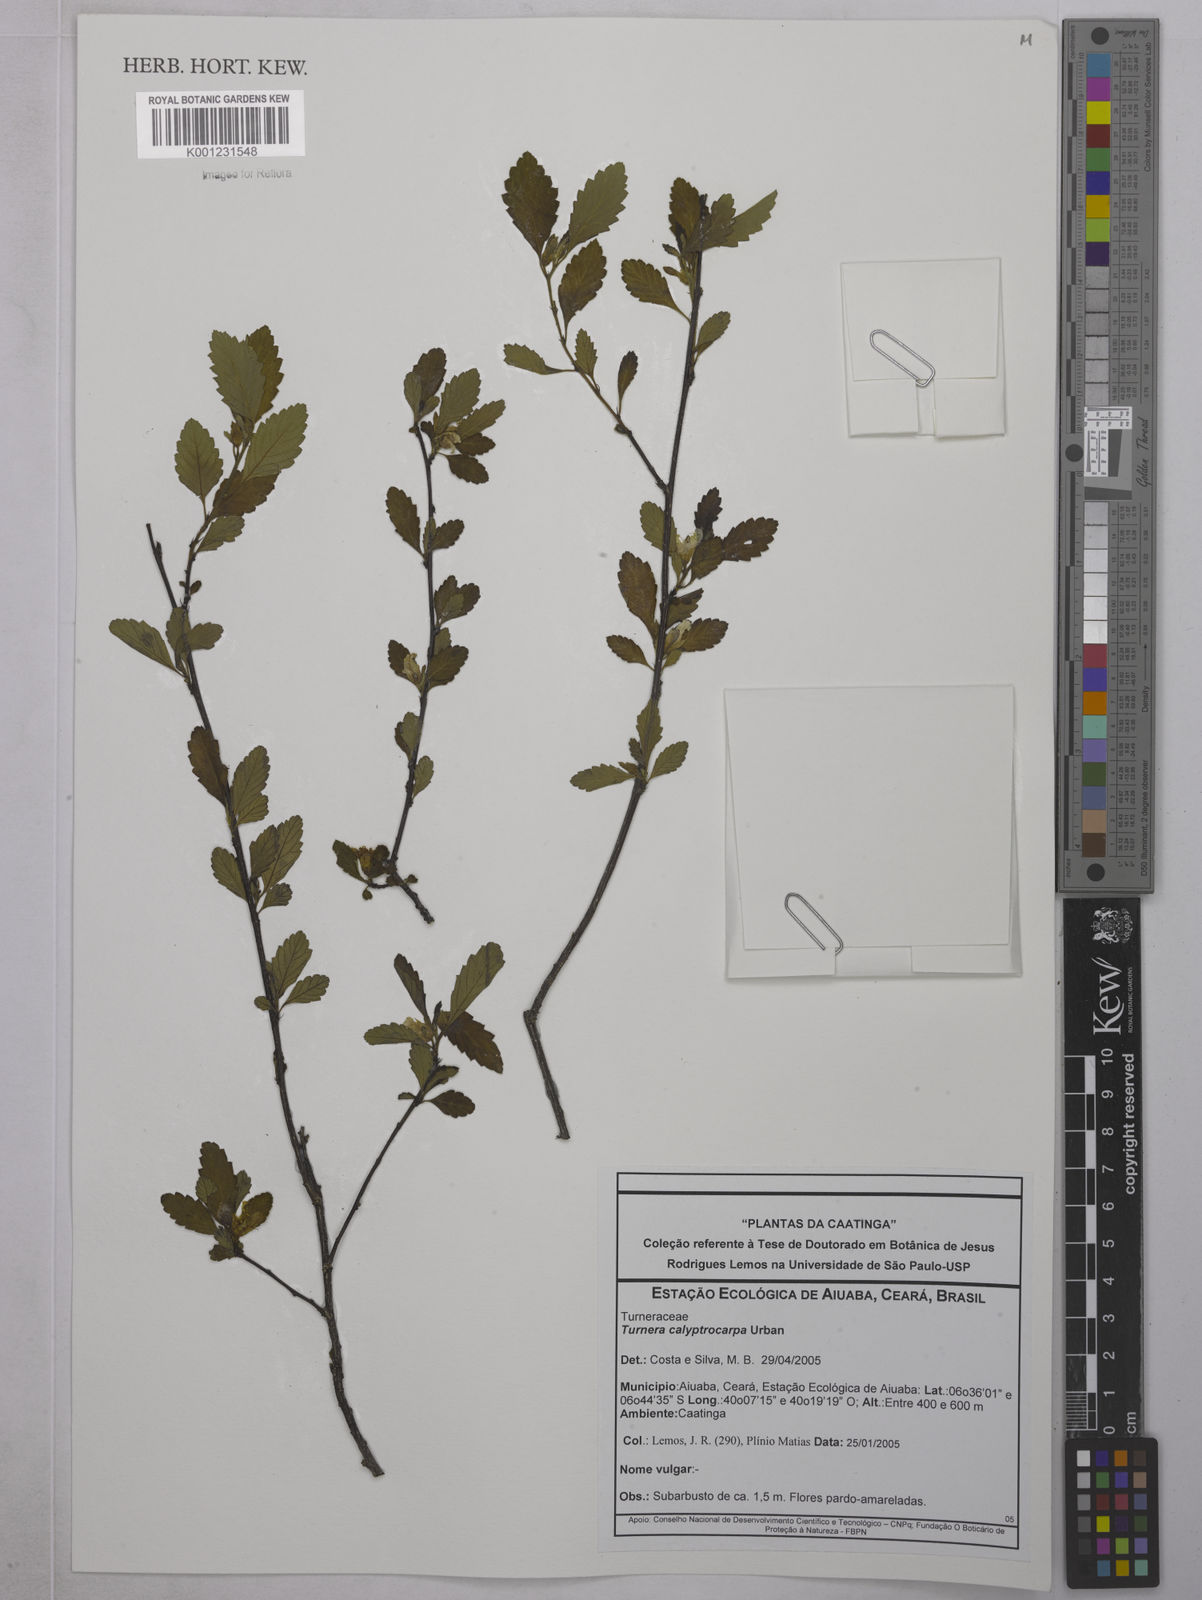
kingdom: Plantae
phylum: Tracheophyta
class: Magnoliopsida
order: Malpighiales
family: Turneraceae
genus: Oxossia
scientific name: Oxossia calyptrocarpa
